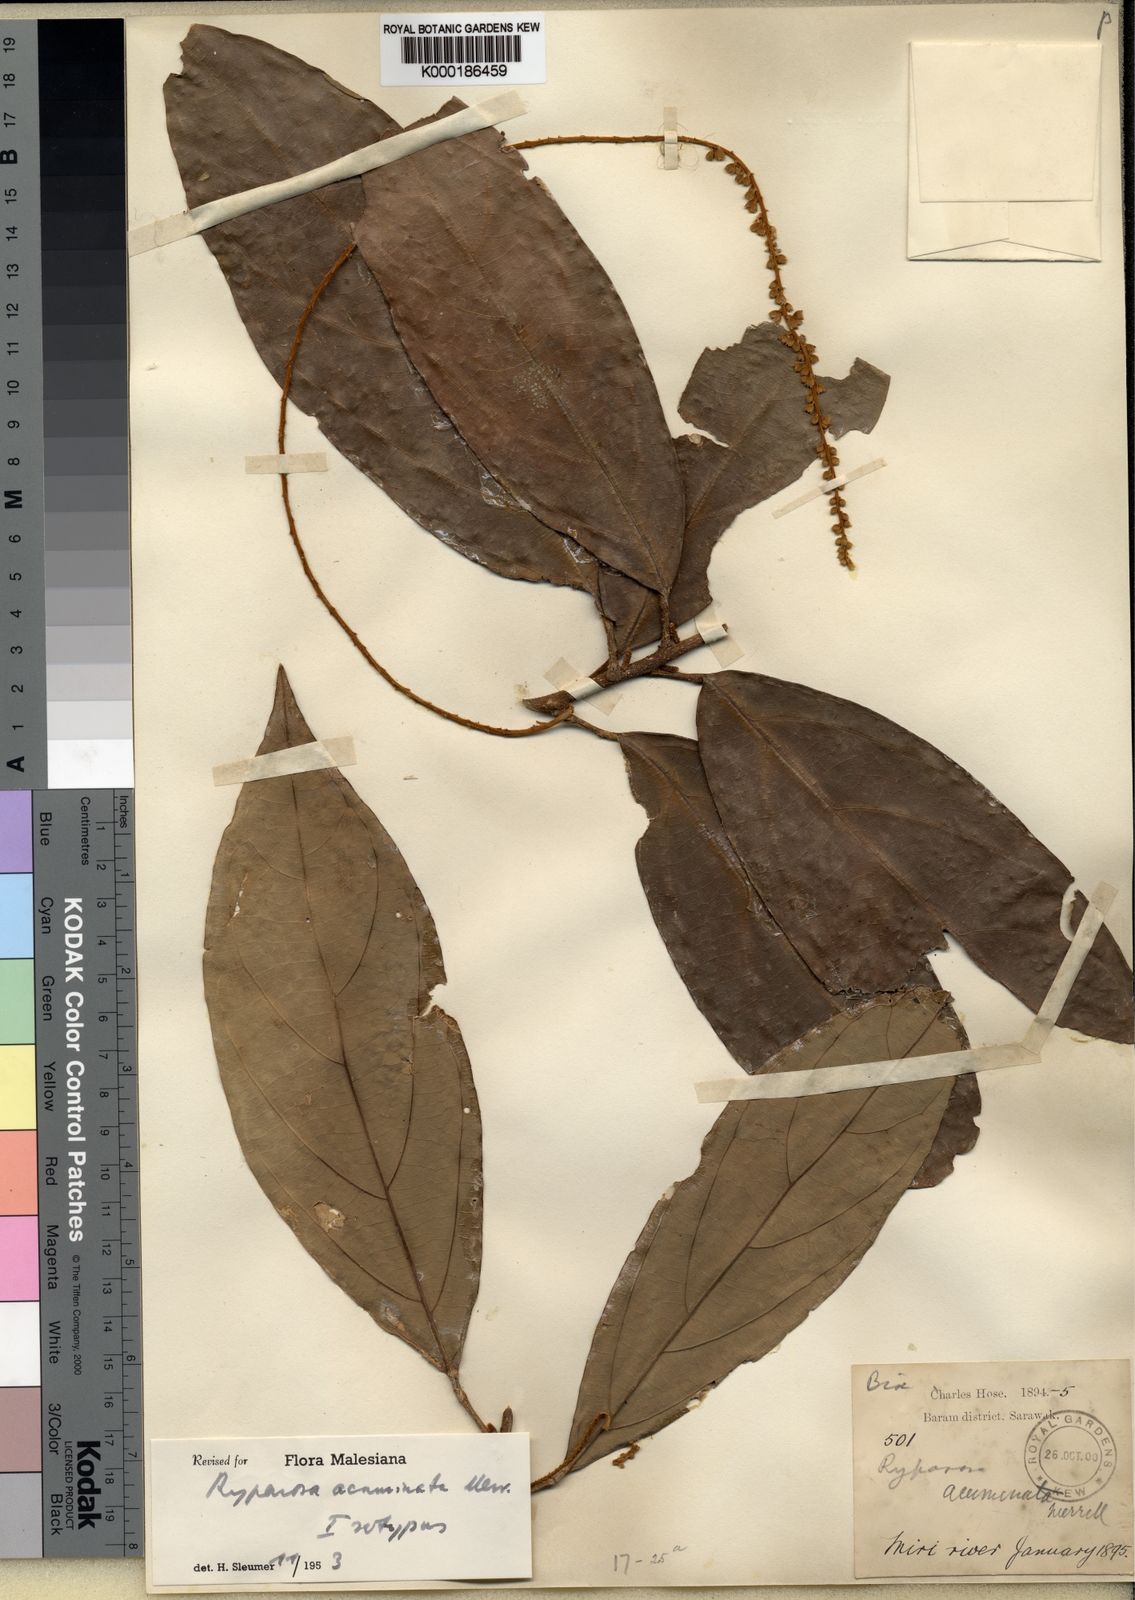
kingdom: Plantae
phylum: Tracheophyta
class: Magnoliopsida
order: Malpighiales
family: Achariaceae
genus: Ryparosa
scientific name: Ryparosa acuminata
